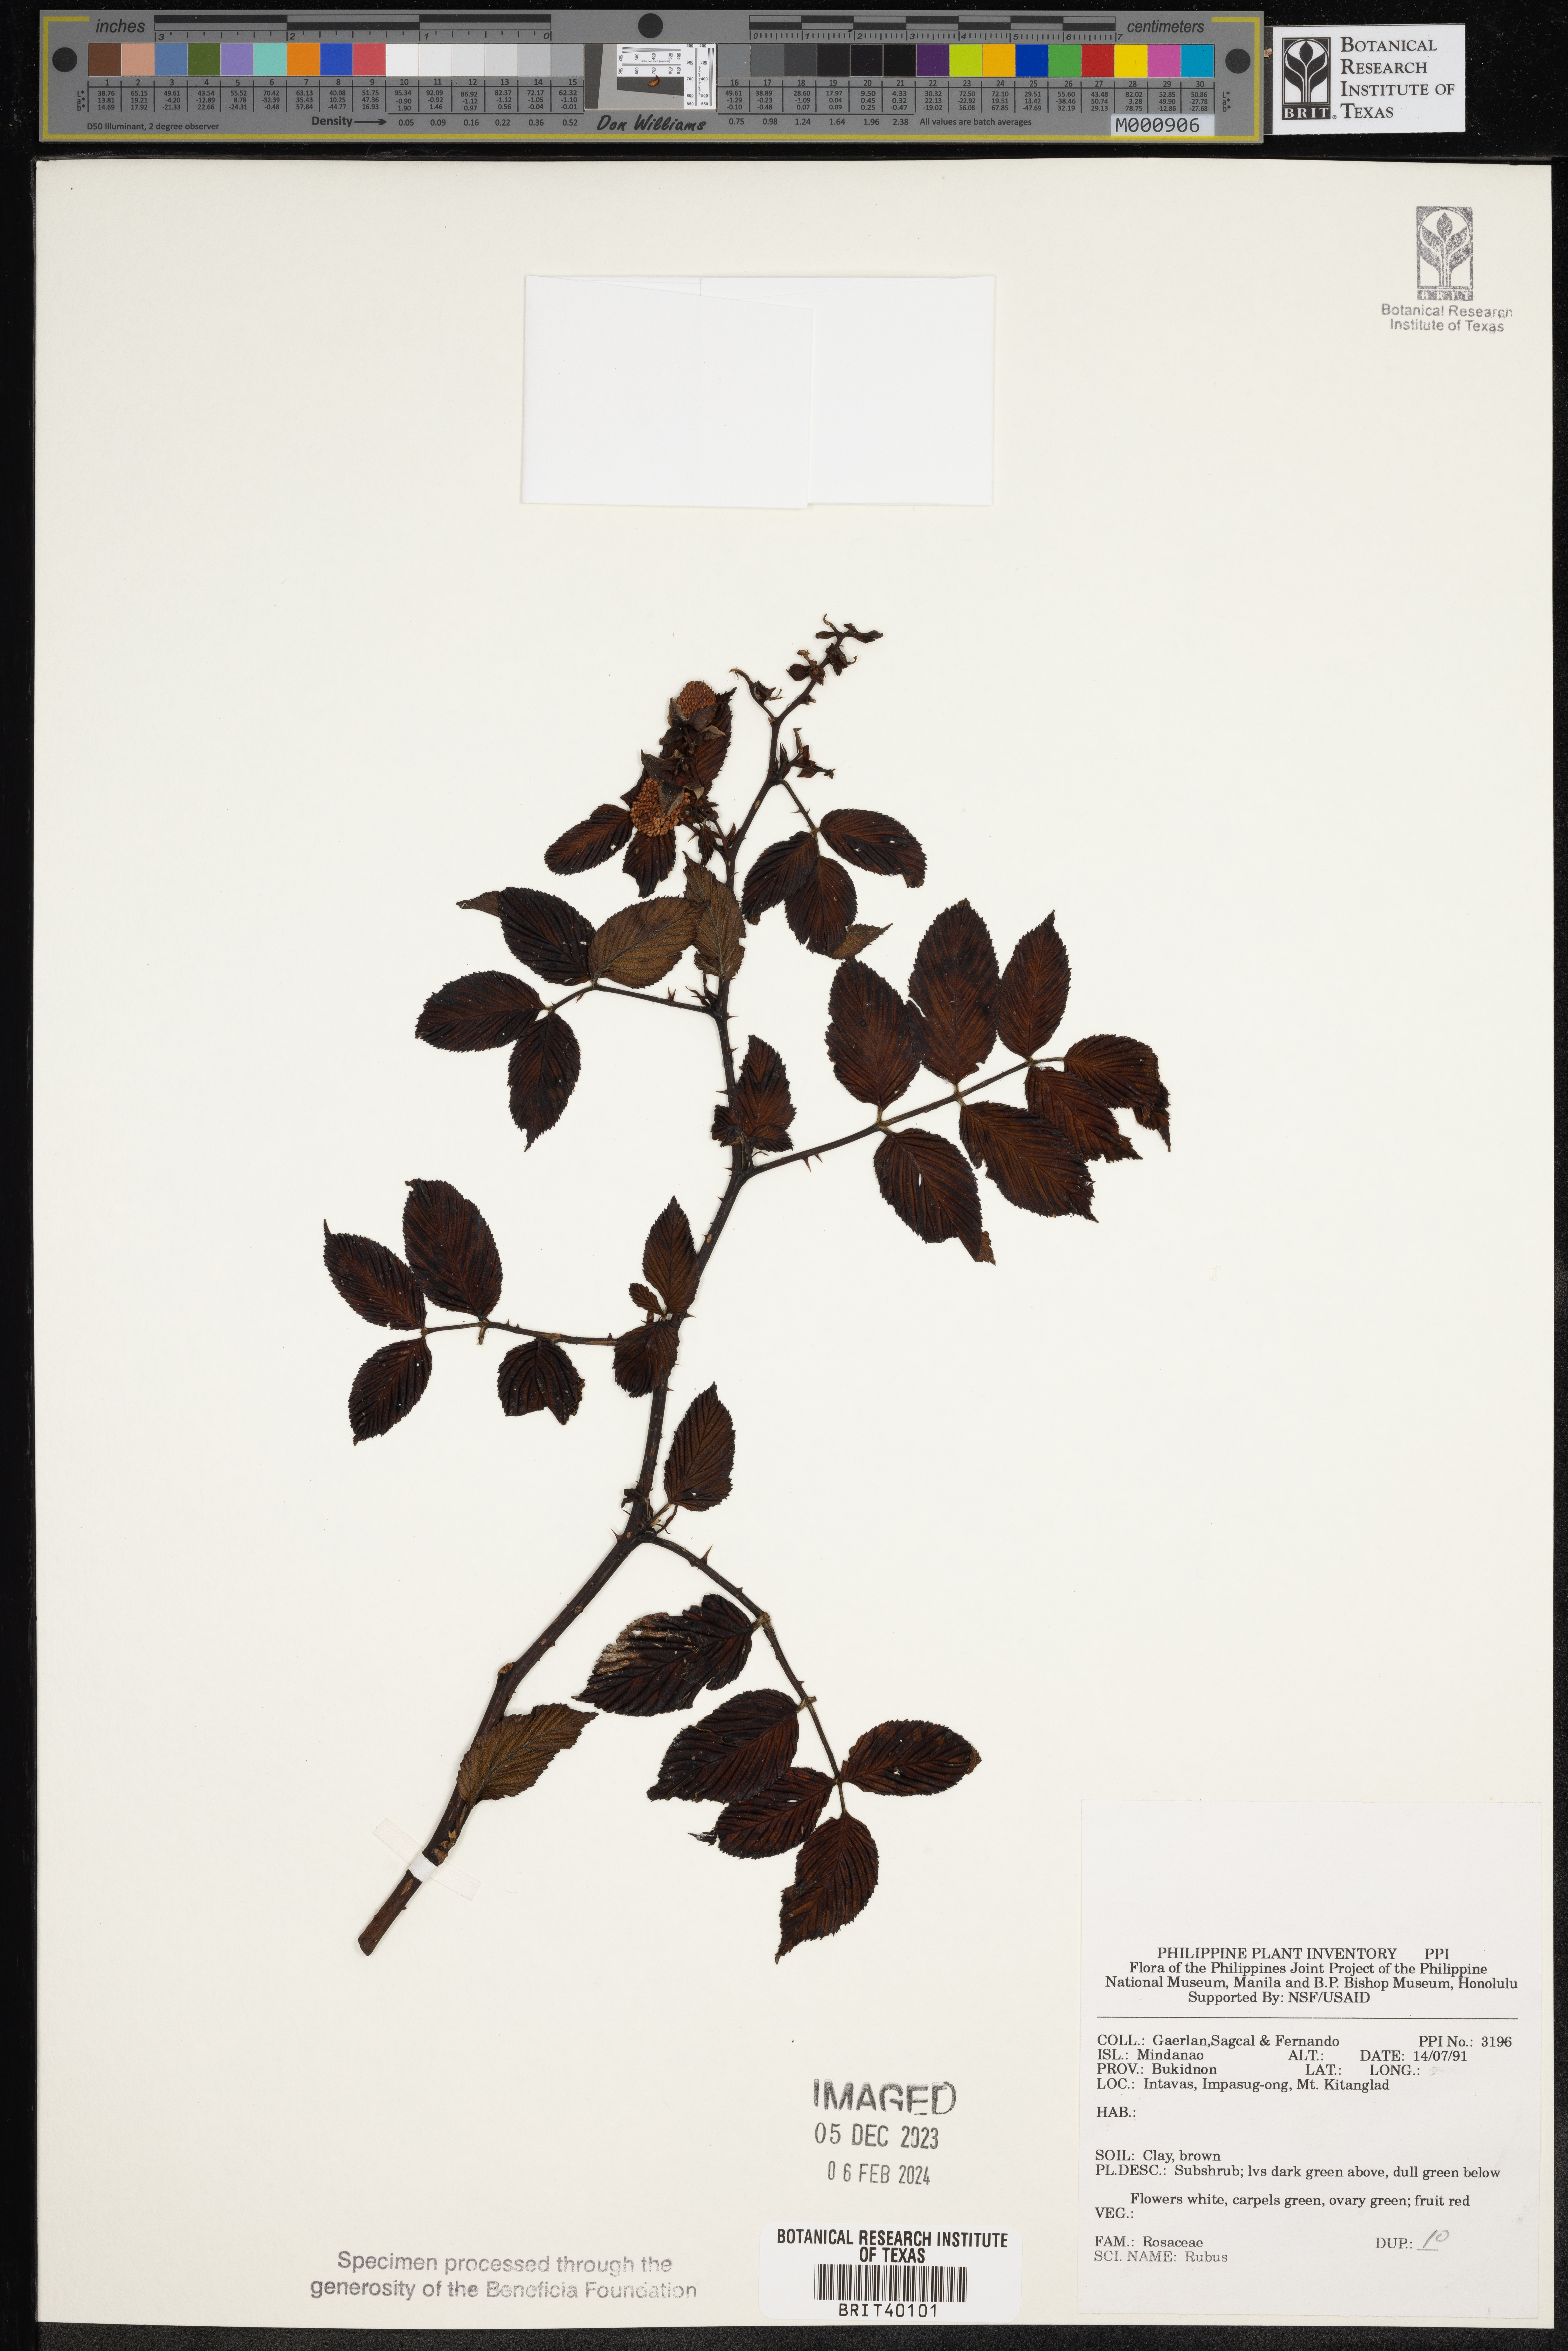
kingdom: Plantae
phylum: Tracheophyta
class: Magnoliopsida
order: Rosales
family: Rosaceae
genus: Rubus
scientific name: Rubus
